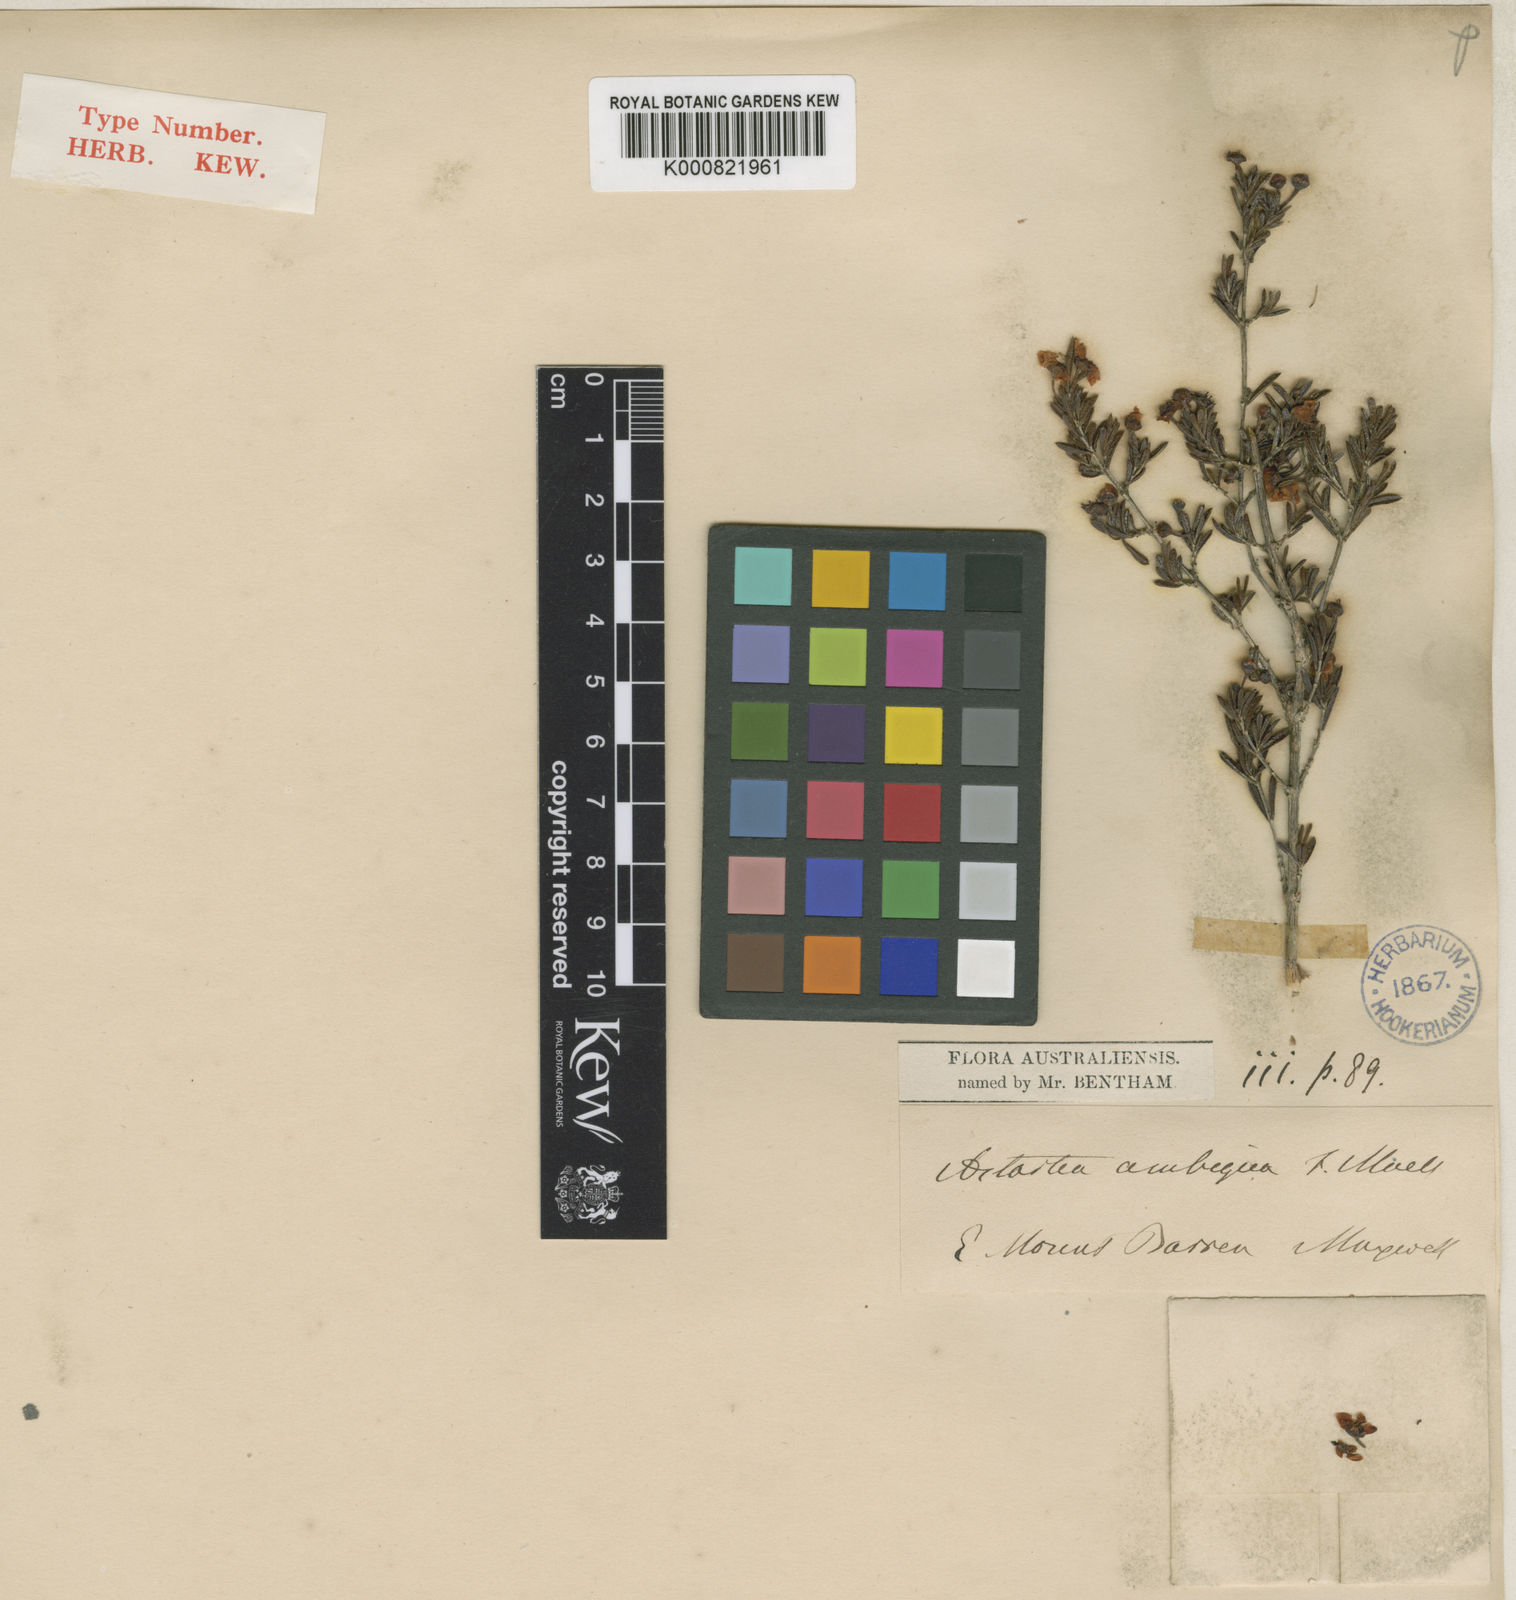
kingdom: Plantae
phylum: Tracheophyta
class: Magnoliopsida
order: Myrtales
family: Myrtaceae
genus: Cyathostemon
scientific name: Cyathostemon ambiguus
